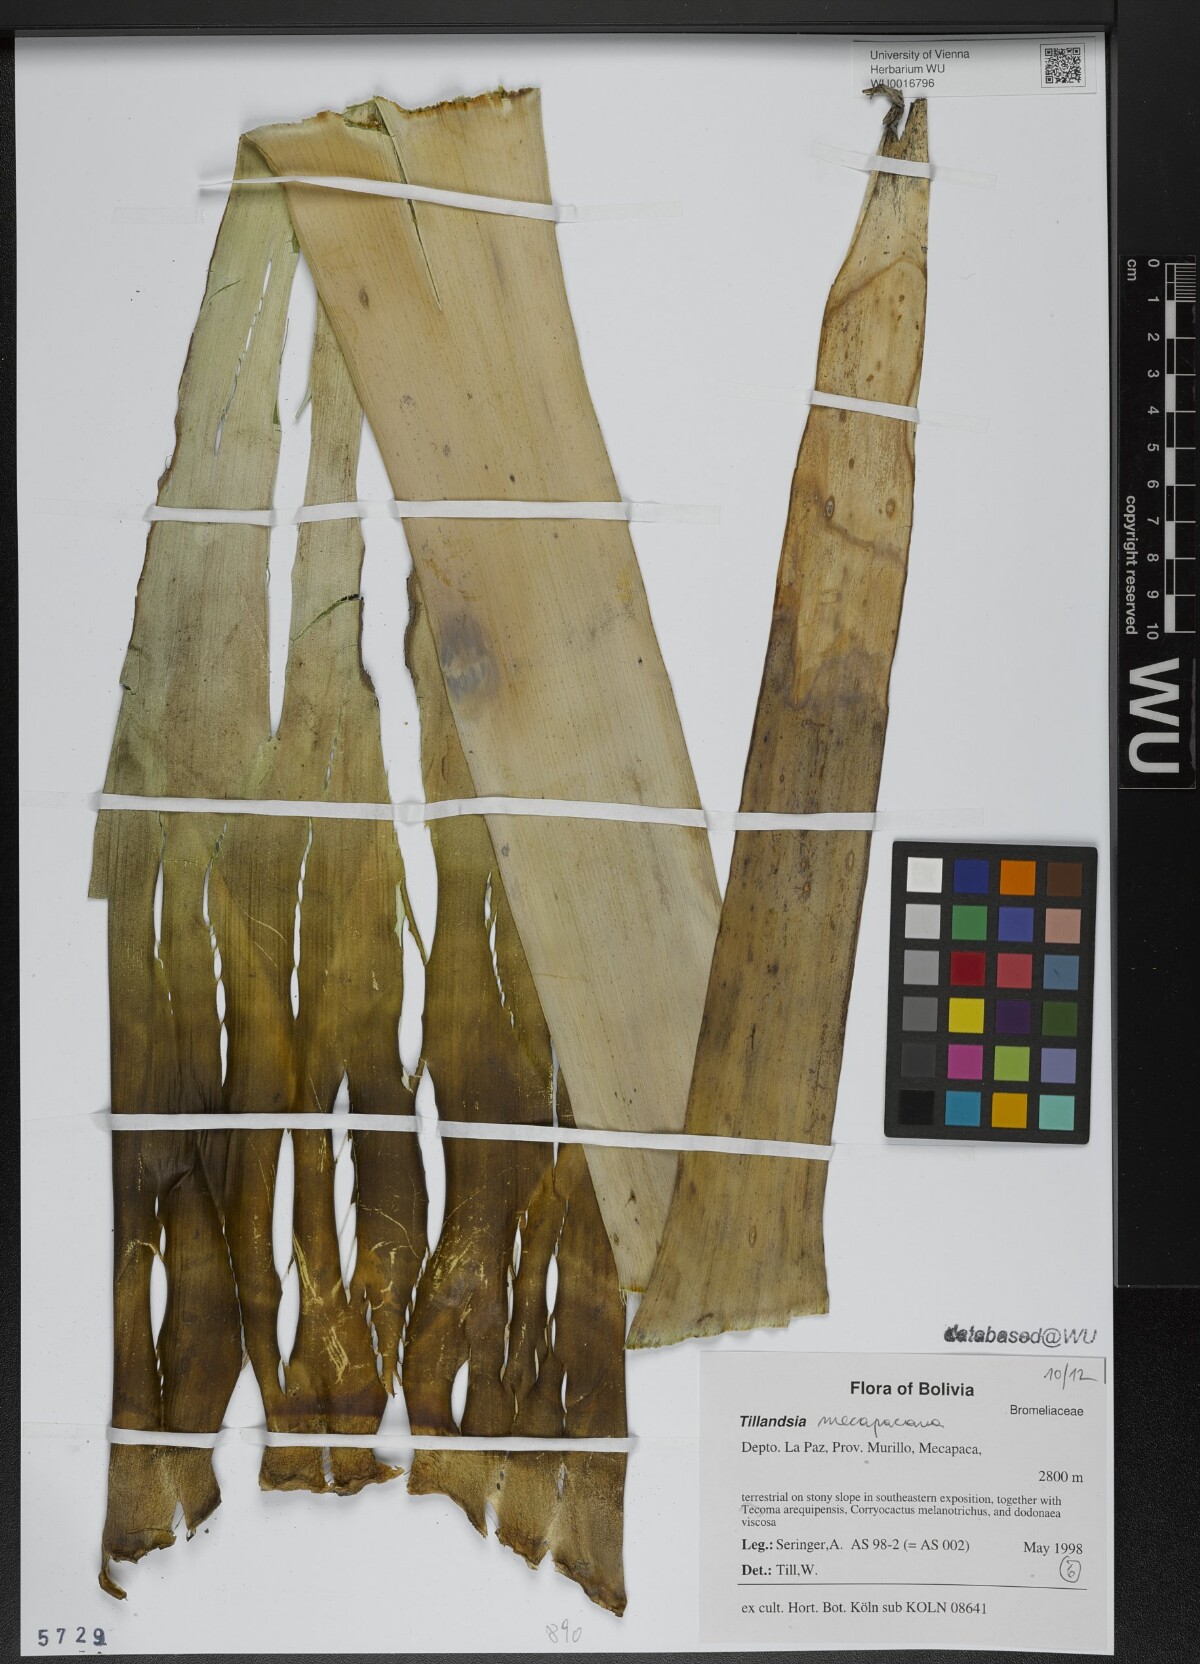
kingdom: Plantae
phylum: Tracheophyta
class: Liliopsida
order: Poales
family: Bromeliaceae
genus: Tillandsia
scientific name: Tillandsia
